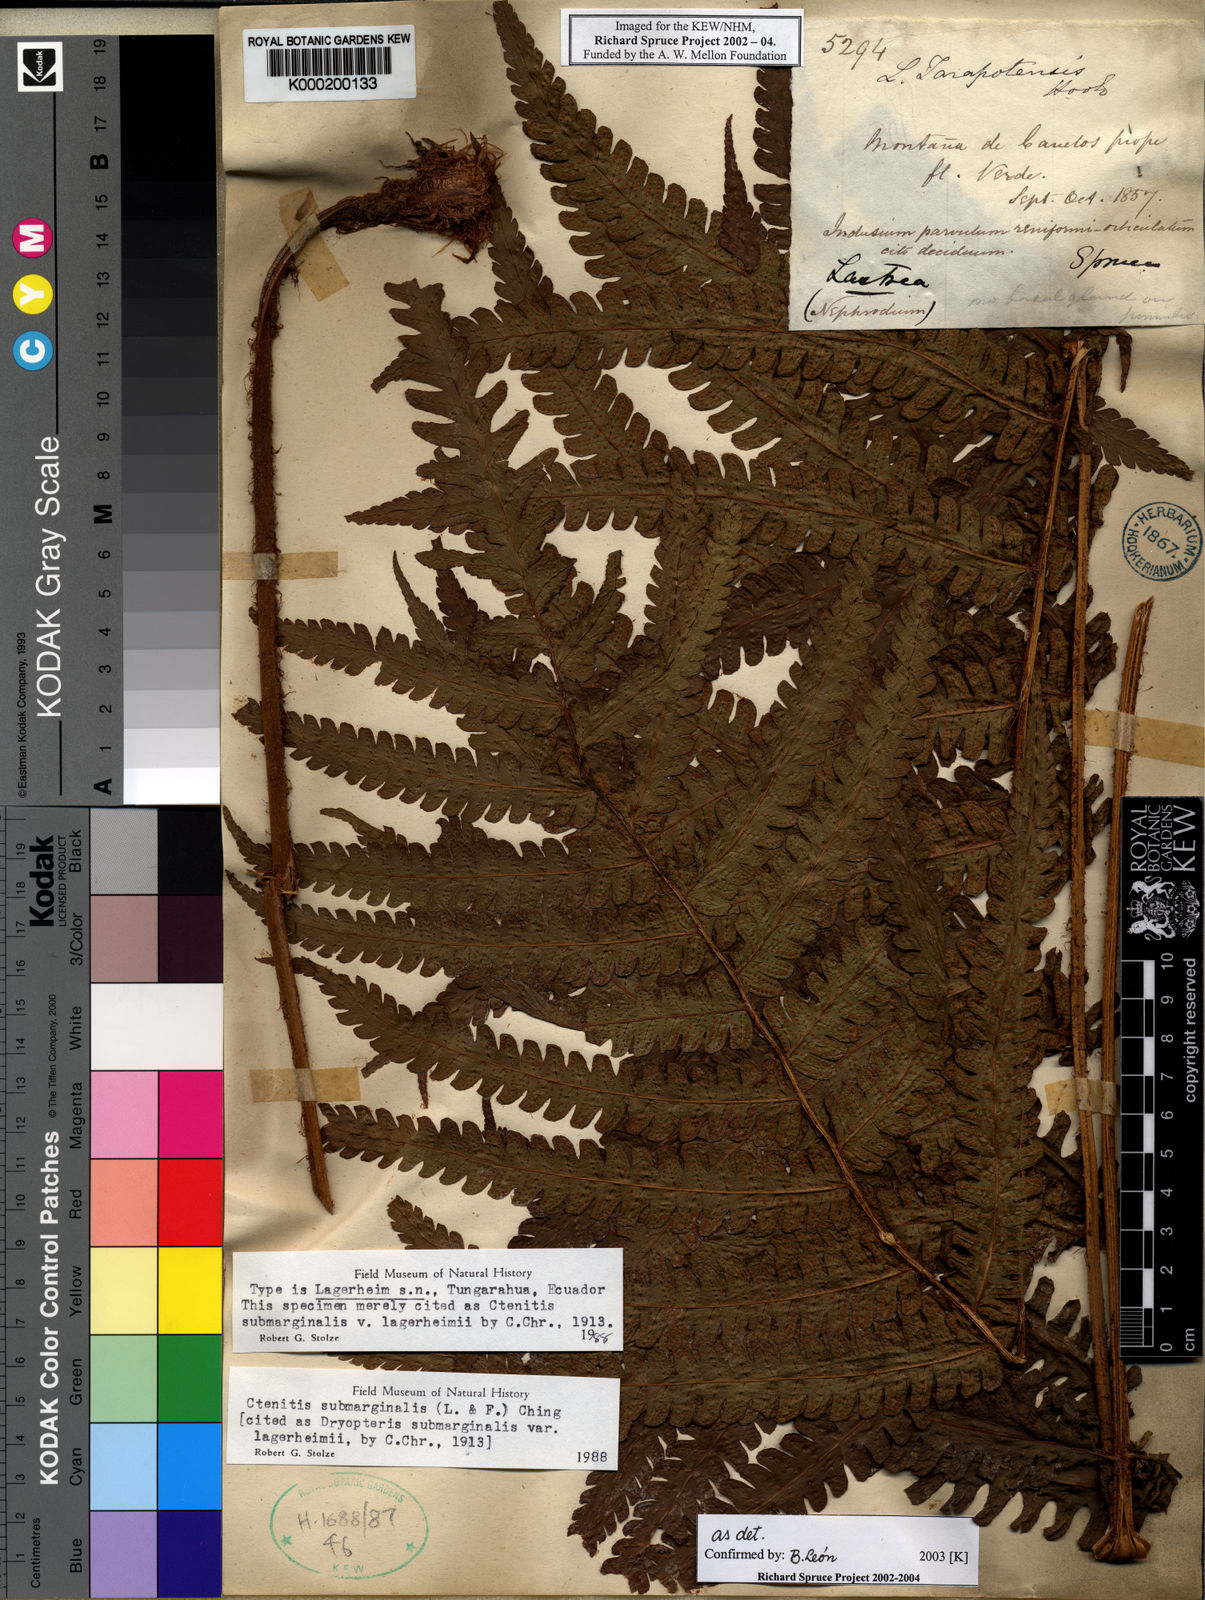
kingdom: Plantae
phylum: Tracheophyta
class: Polypodiopsida
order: Polypodiales
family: Dryopteridaceae
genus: Ctenitis
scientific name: Ctenitis submarginalis
